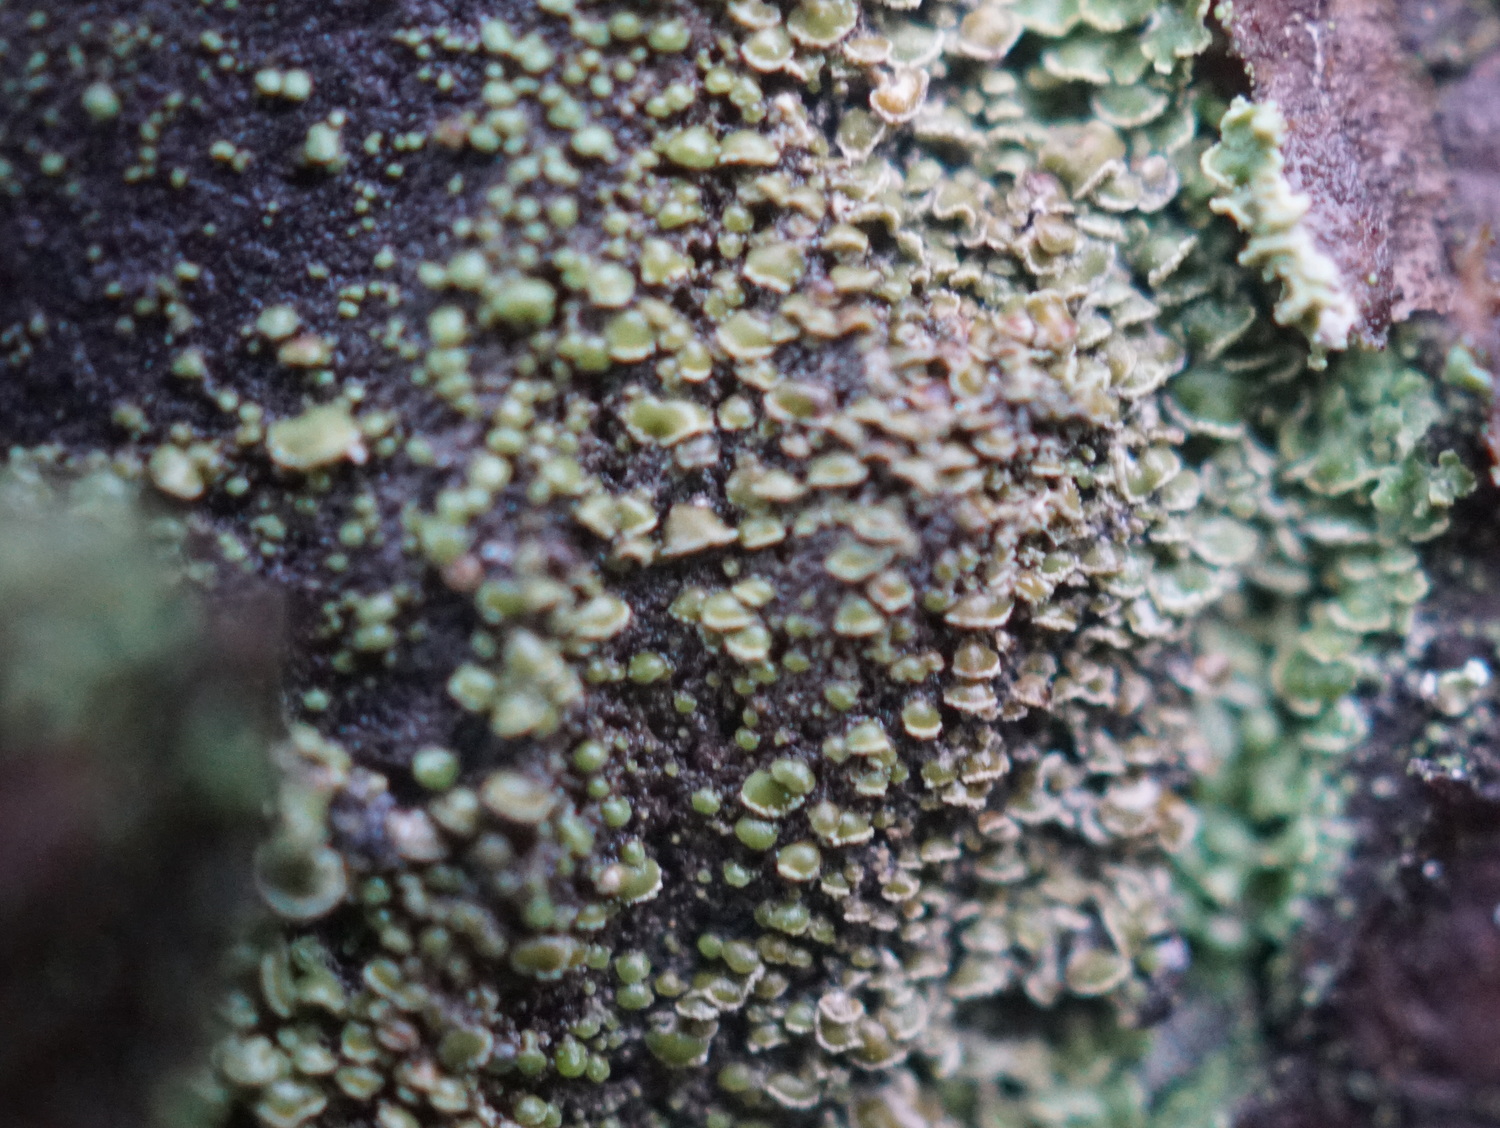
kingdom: Fungi
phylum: Ascomycota
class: Lecanoromycetes
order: Umbilicariales
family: Ophioparmaceae
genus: Hypocenomyce
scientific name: Hypocenomyce scalaris
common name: småskællet muslinglav
